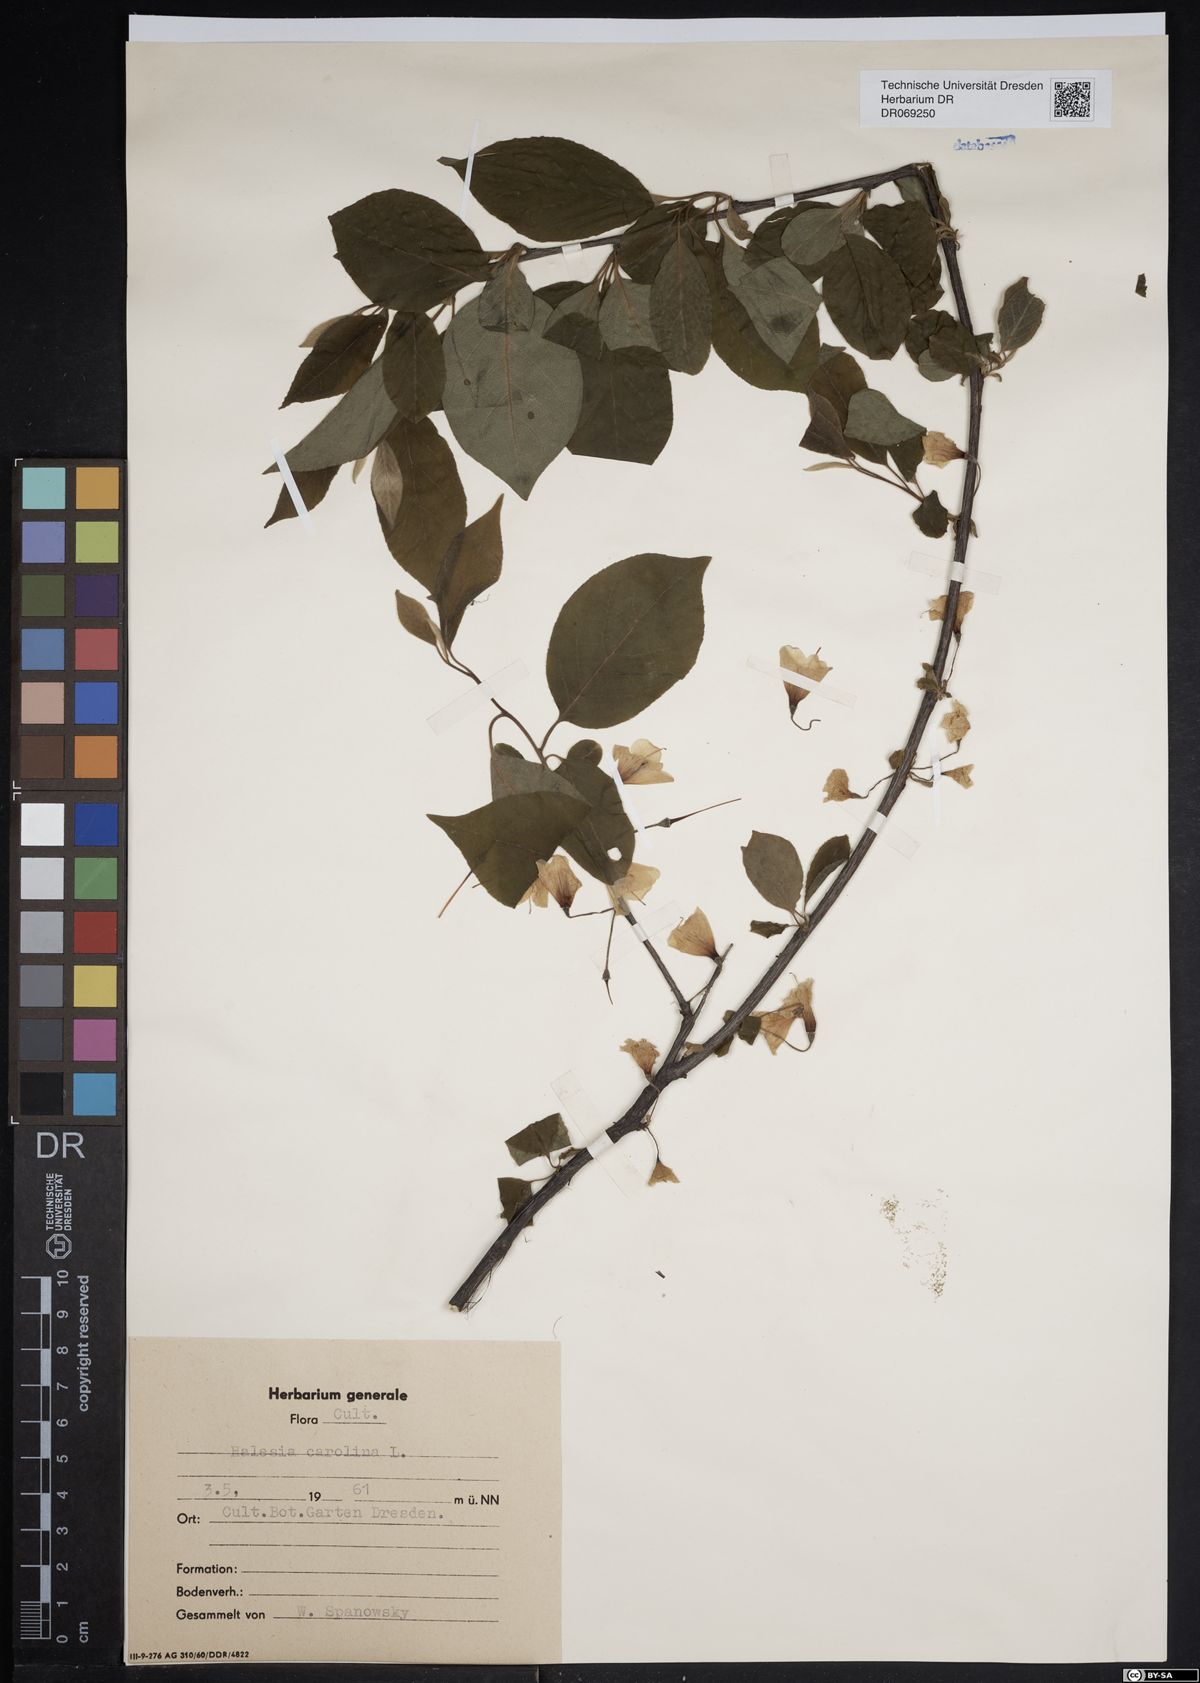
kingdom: Plantae
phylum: Tracheophyta
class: Magnoliopsida
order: Ericales
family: Styracaceae
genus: Halesia
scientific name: Halesia carolina
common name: Carolina silverbell
